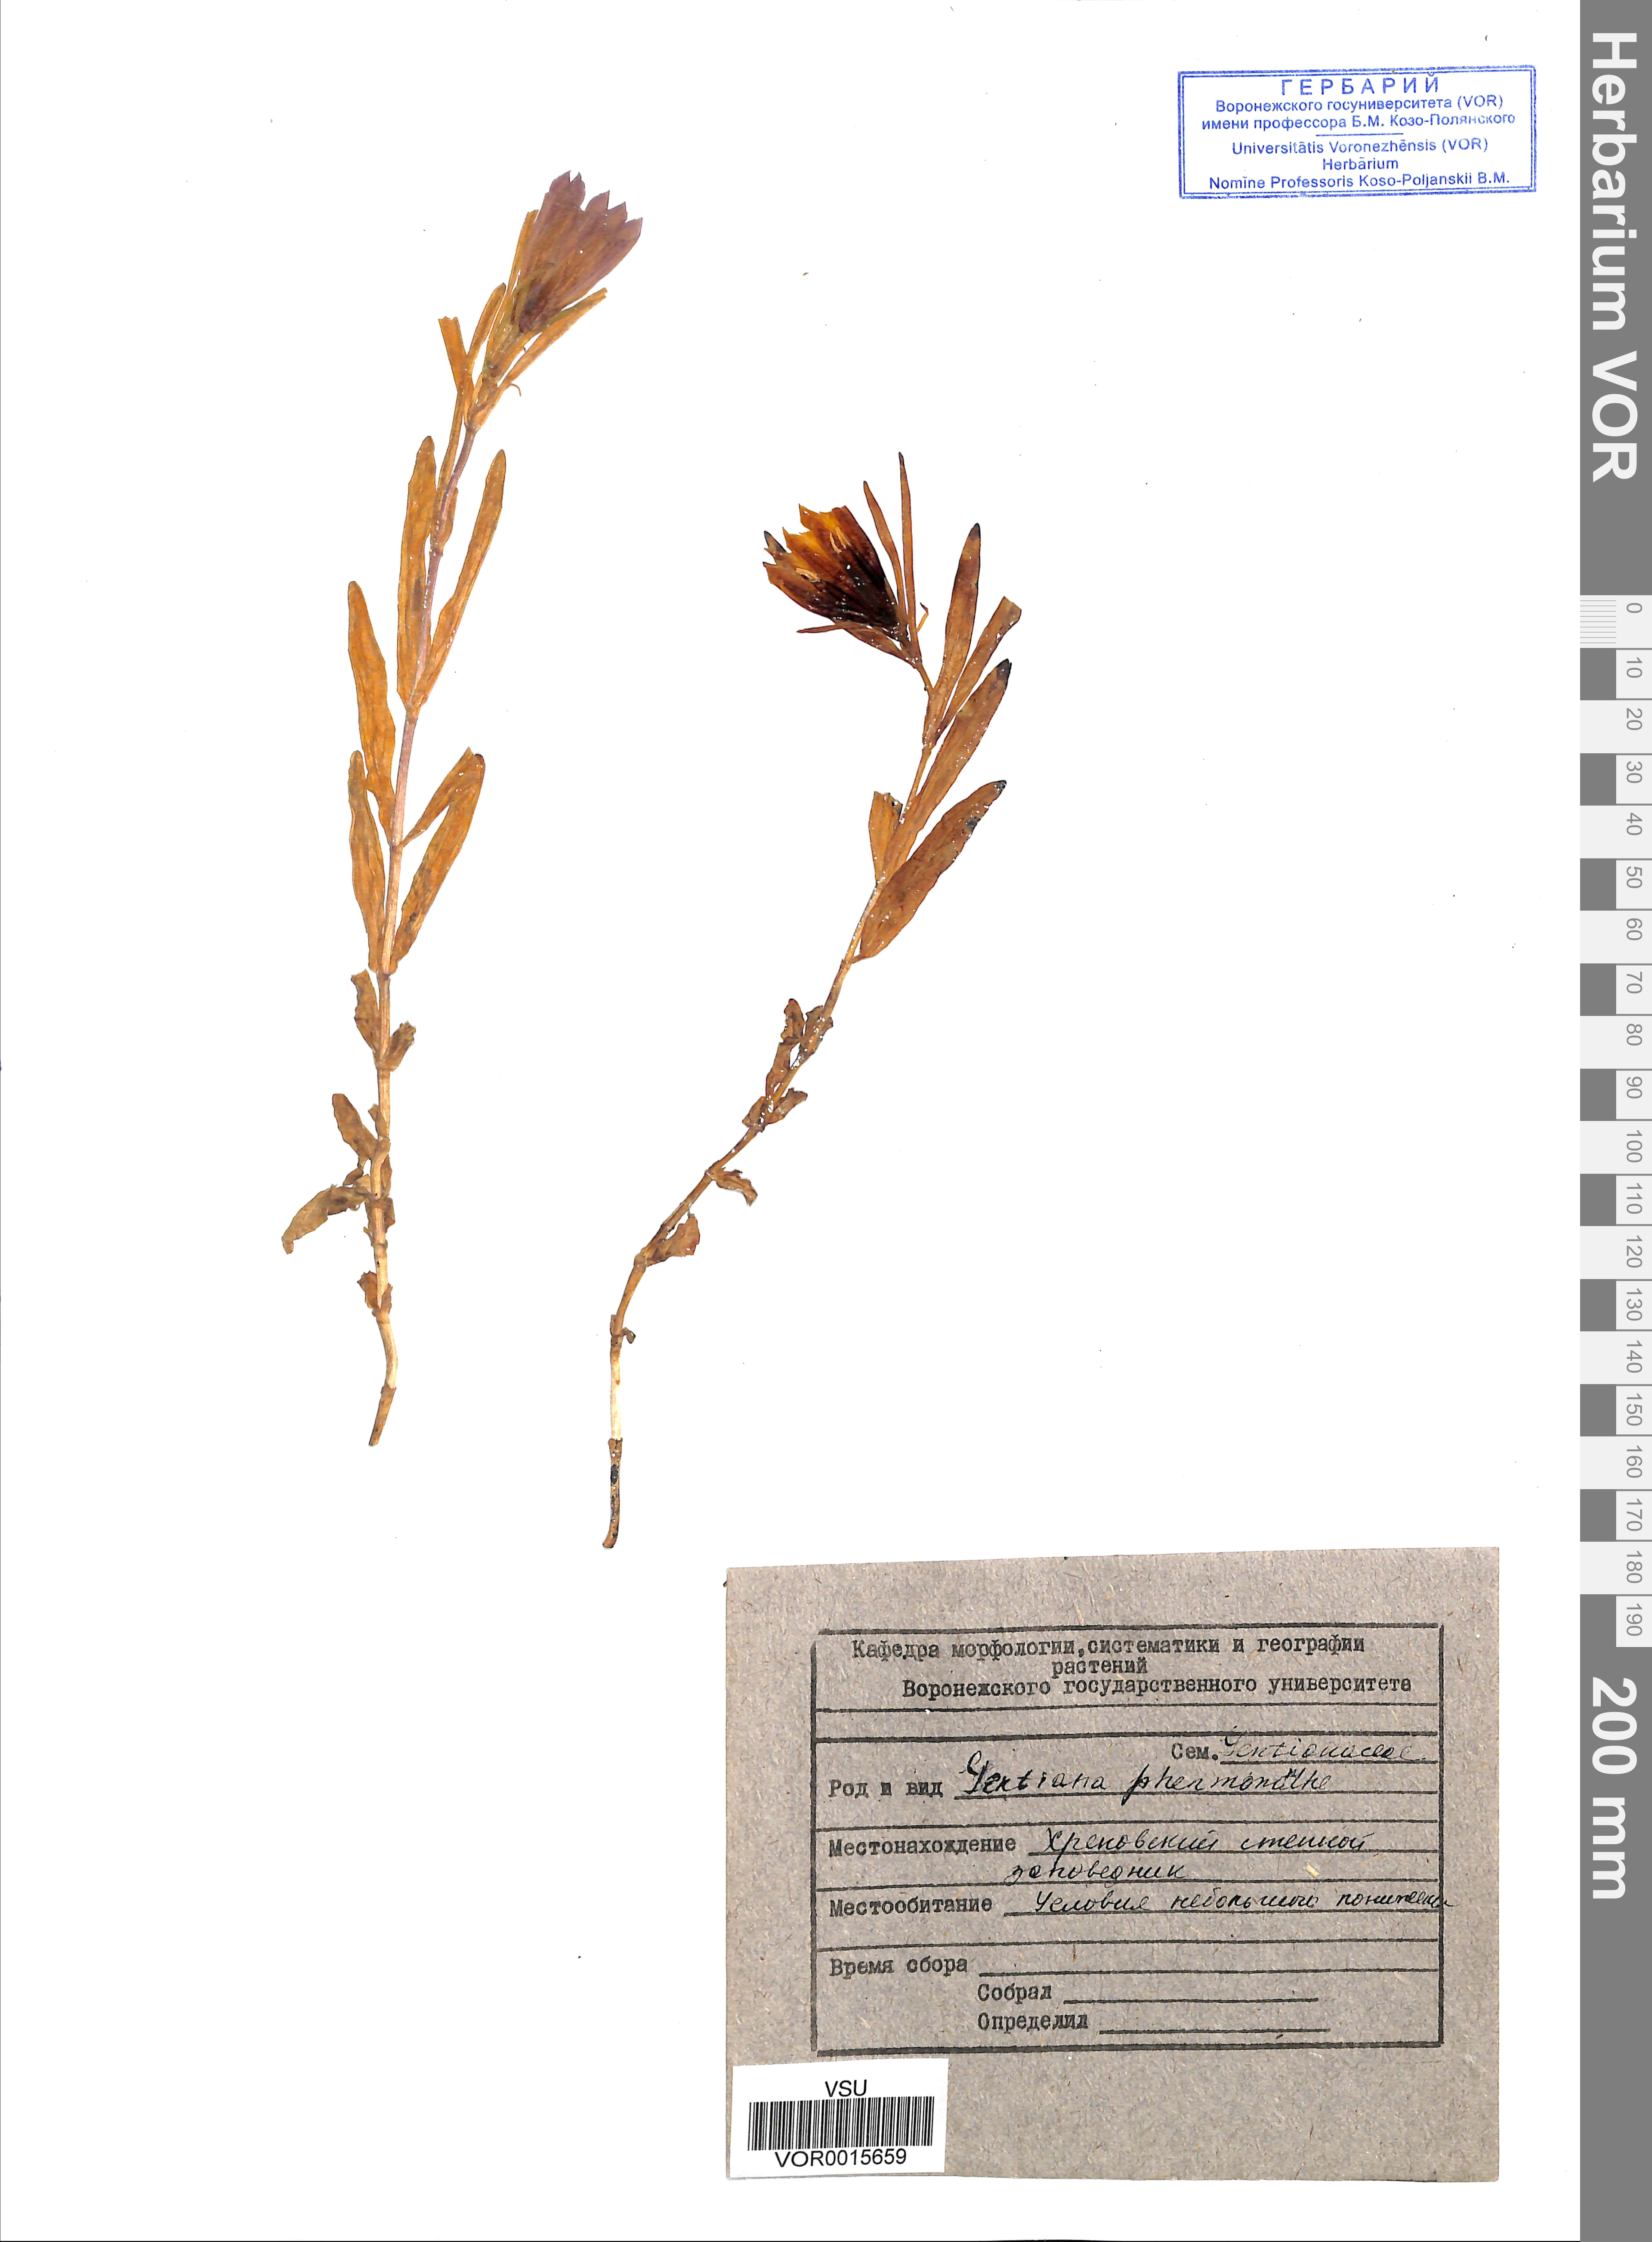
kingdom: Plantae
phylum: Tracheophyta
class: Magnoliopsida
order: Gentianales
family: Gentianaceae
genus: Gentiana
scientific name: Gentiana pneumonanthe
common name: Marsh gentian
